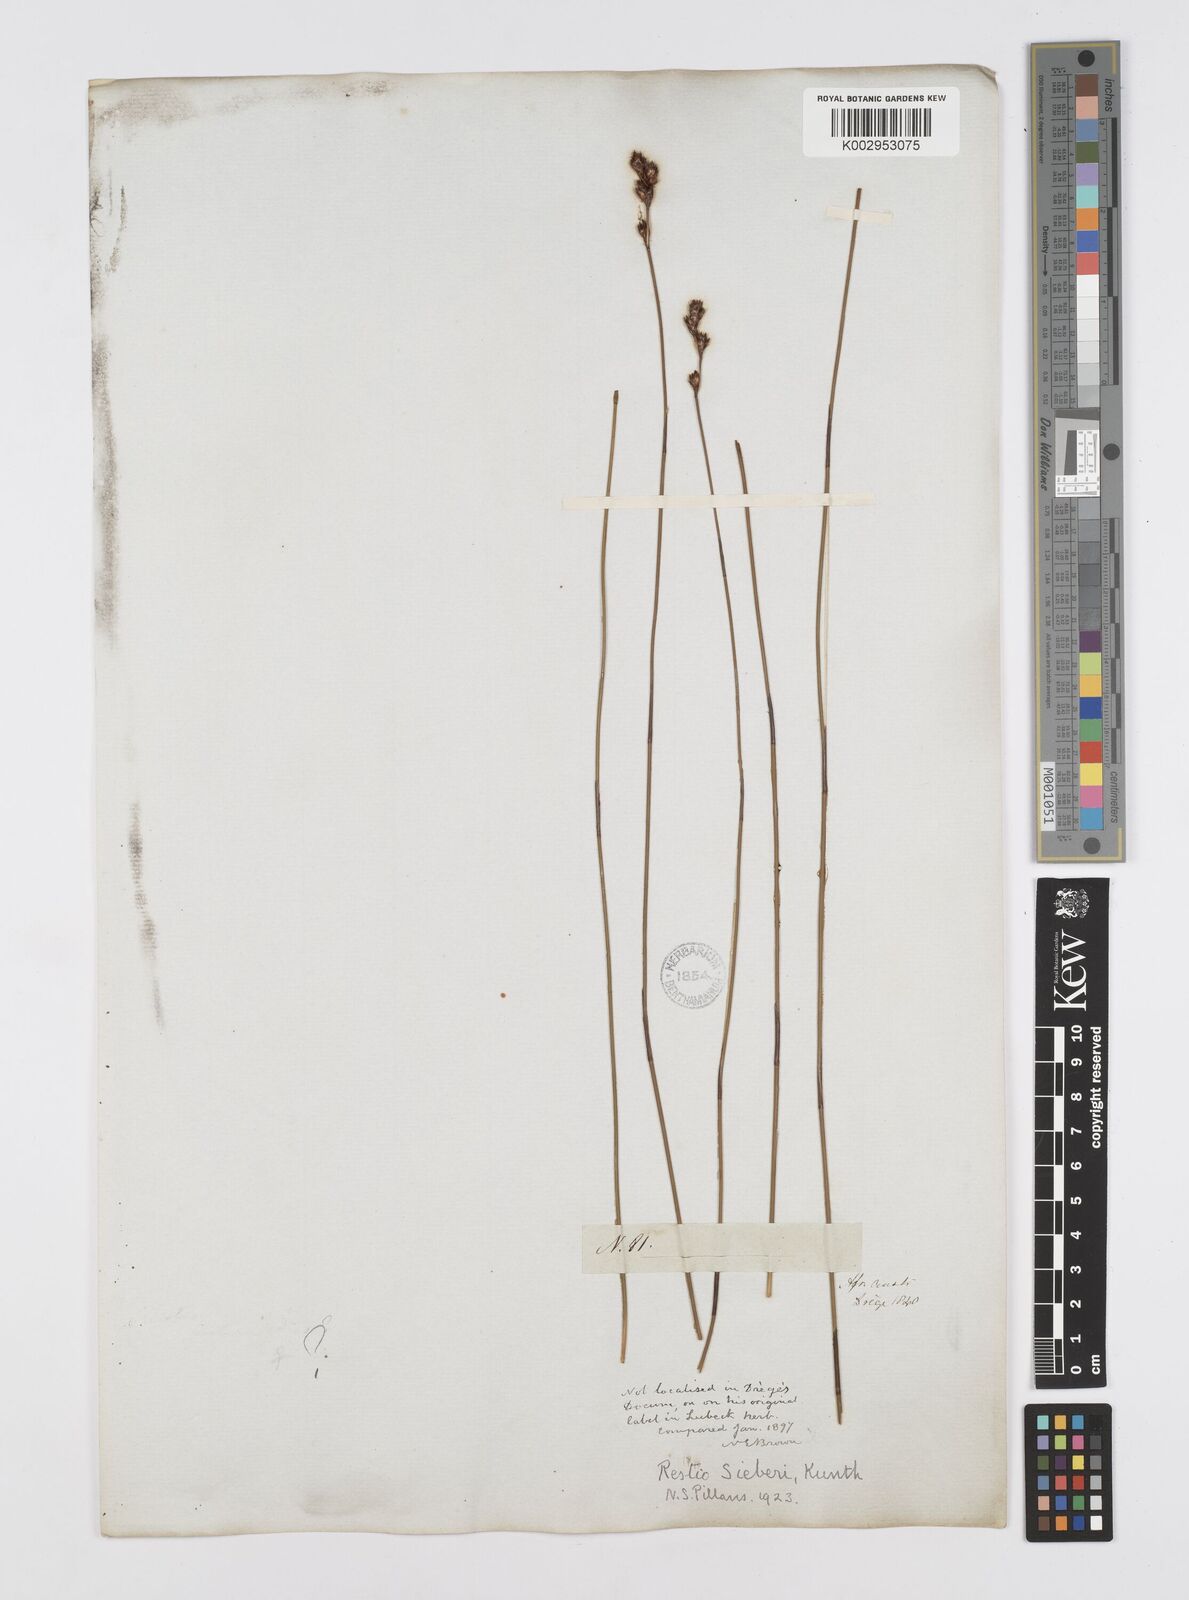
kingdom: Plantae
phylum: Tracheophyta
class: Liliopsida
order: Poales
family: Restionaceae
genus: Restio
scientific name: Restio sieberi
